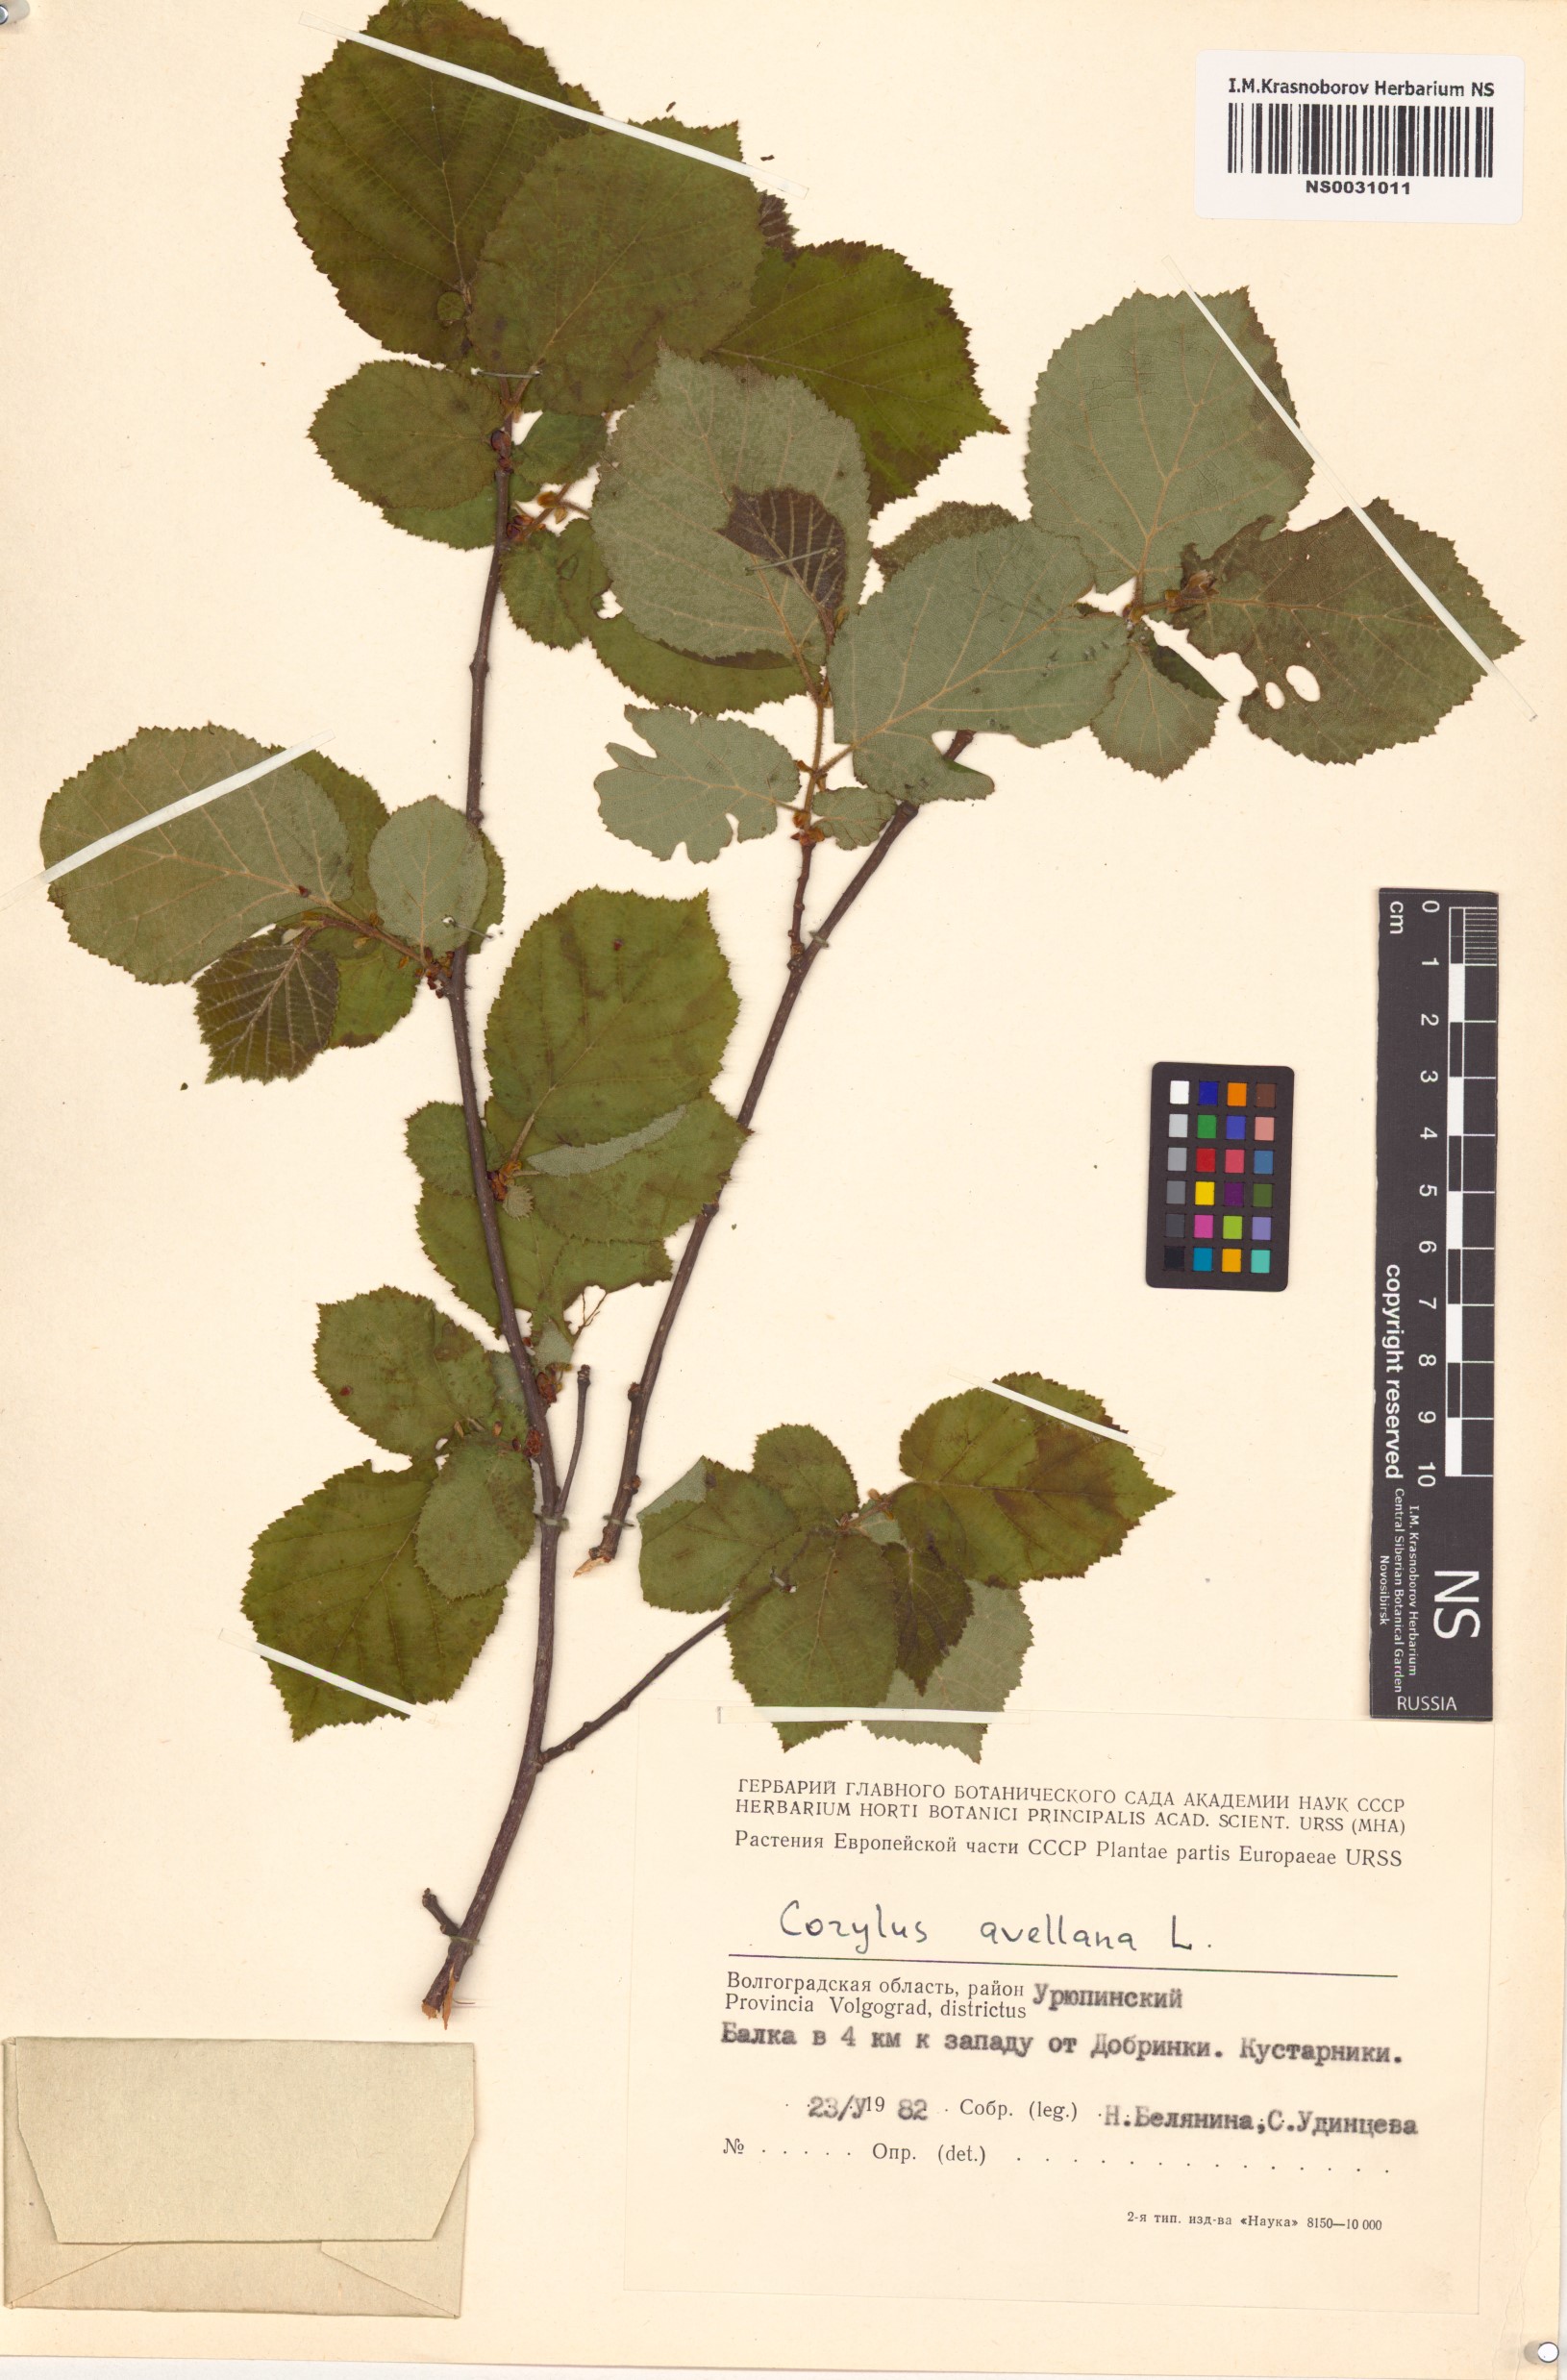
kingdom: Plantae
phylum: Tracheophyta
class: Magnoliopsida
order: Fagales
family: Betulaceae
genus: Corylus
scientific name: Corylus avellana
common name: European hazel
